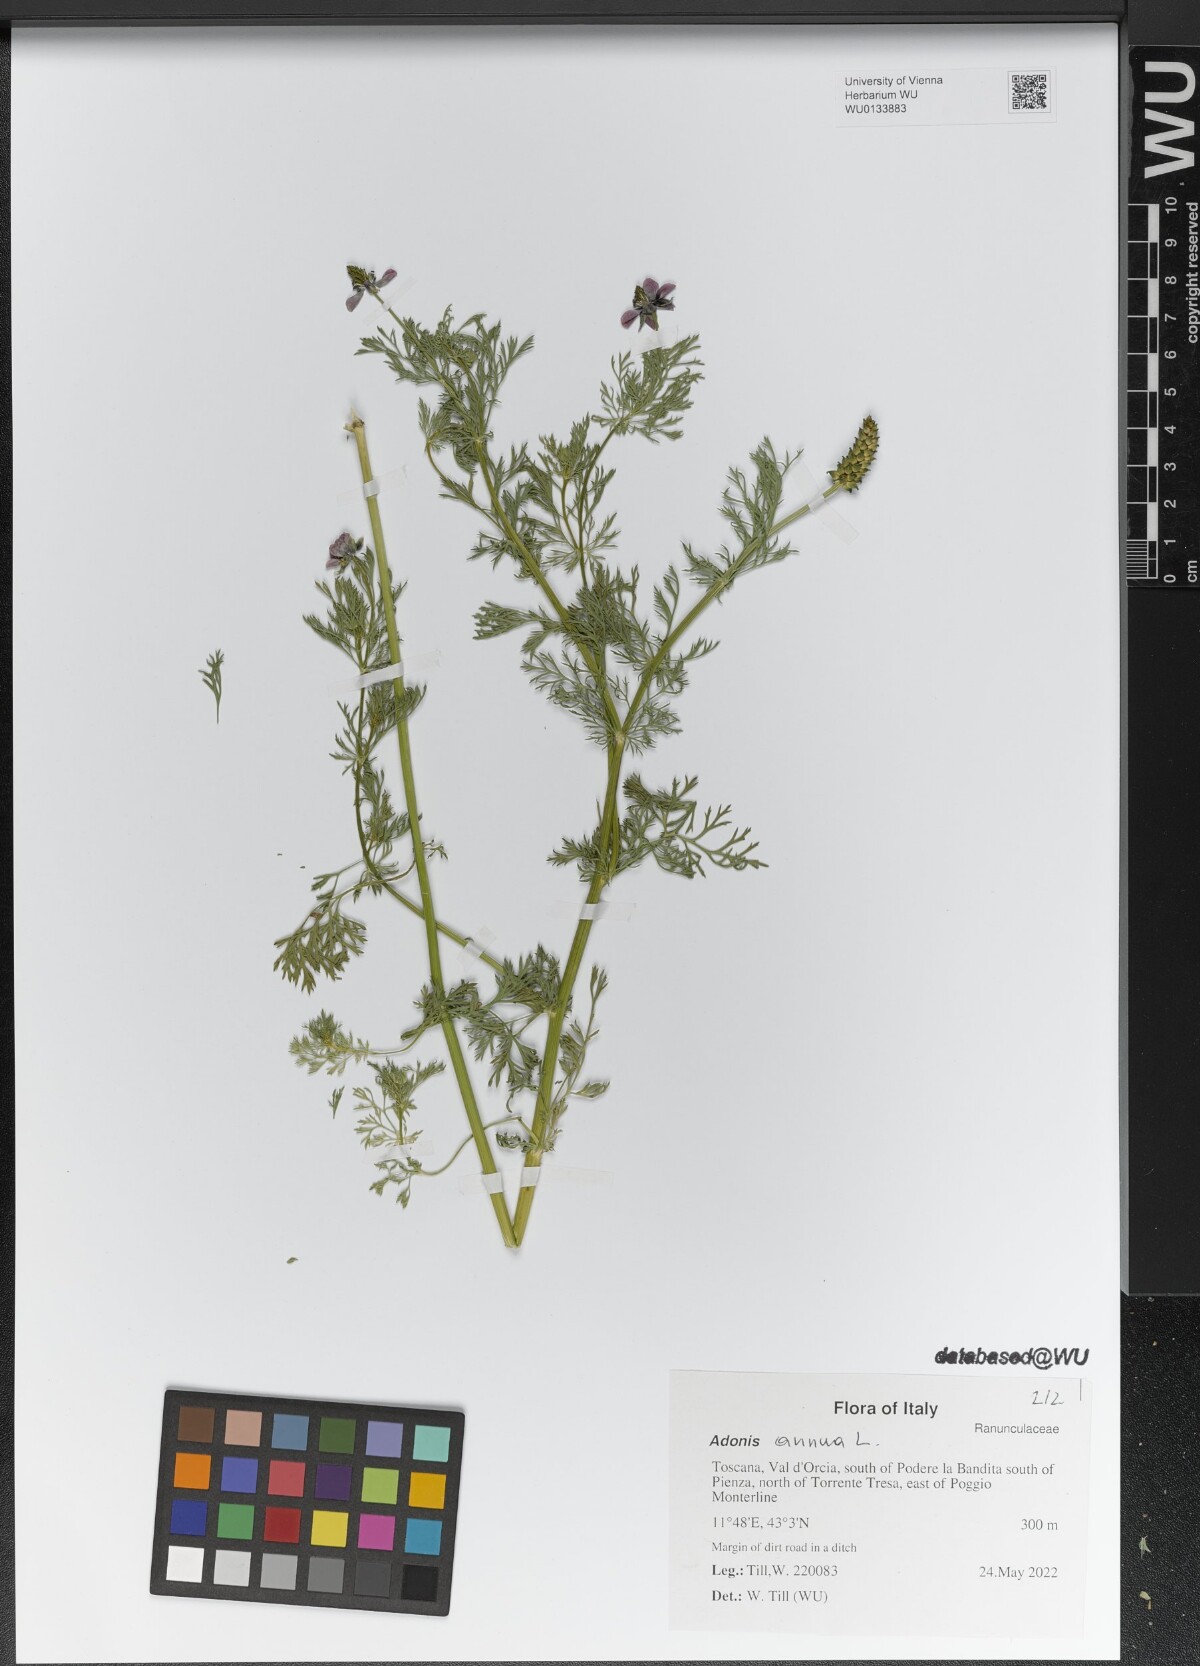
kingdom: Plantae
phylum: Tracheophyta
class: Magnoliopsida
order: Ranunculales
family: Ranunculaceae
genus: Adonis
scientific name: Adonis annua
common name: Pheasant's-eye
